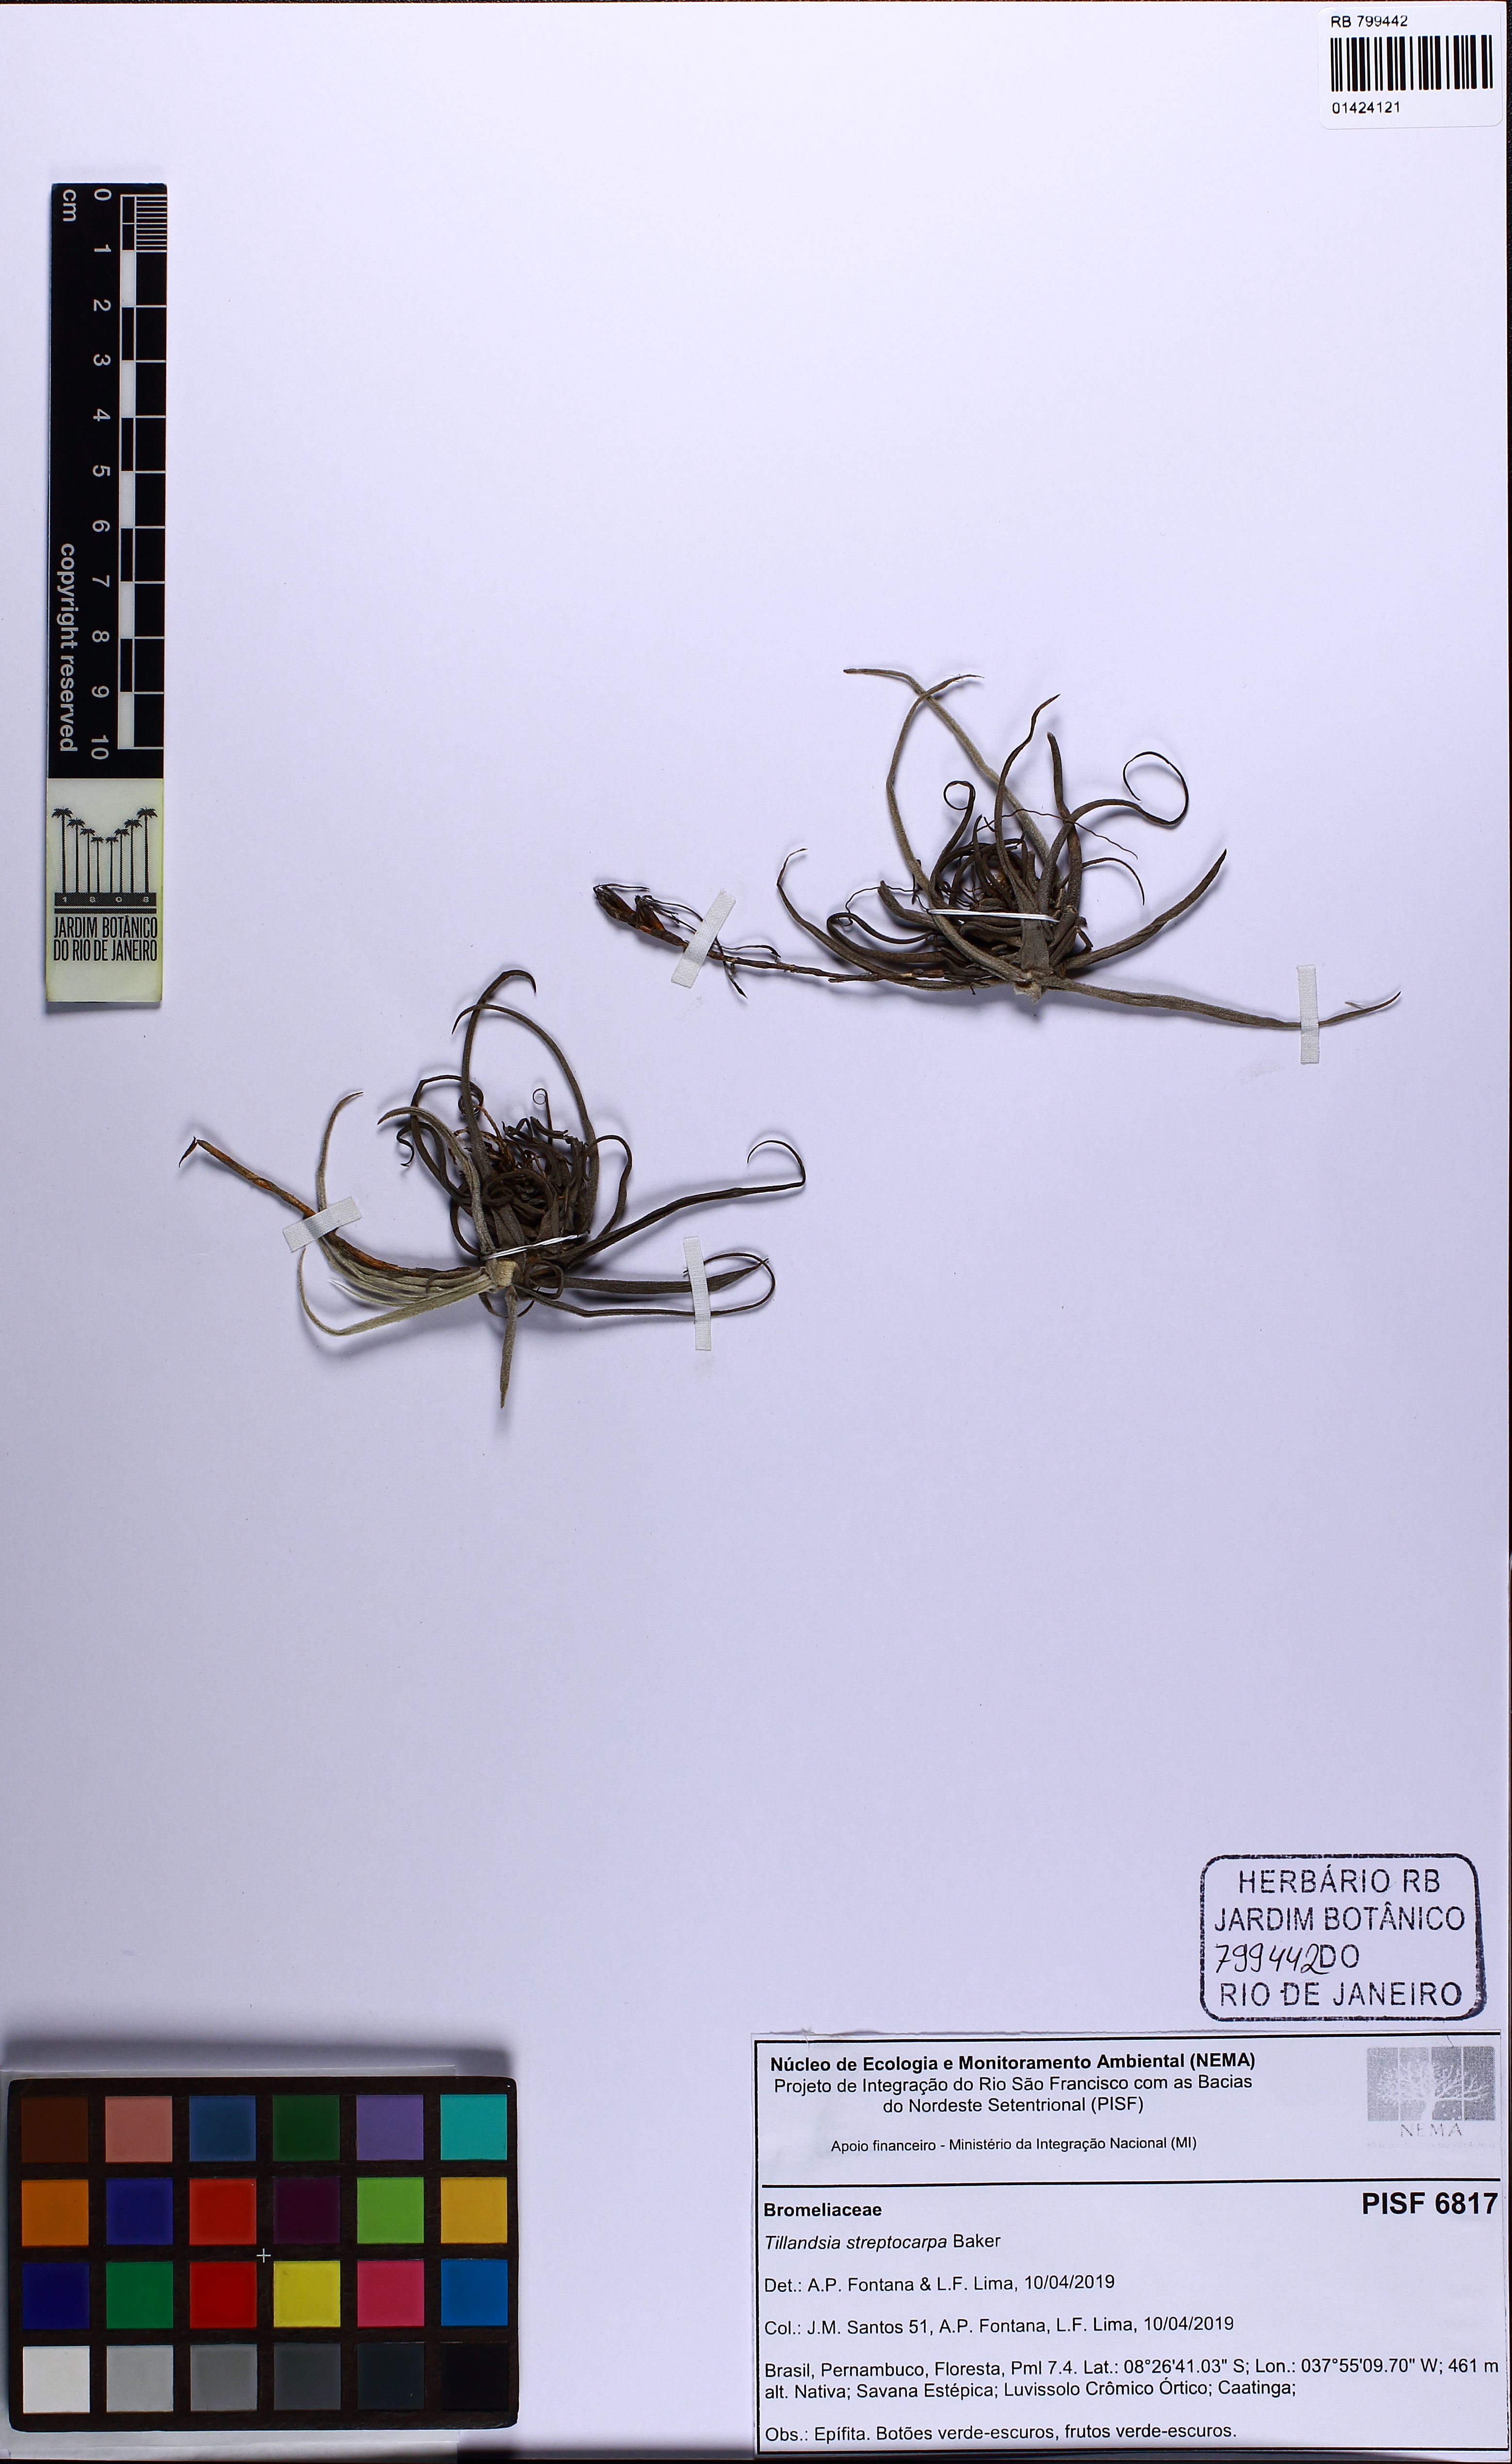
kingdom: Plantae
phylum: Tracheophyta
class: Liliopsida
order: Poales
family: Bromeliaceae
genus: Tillandsia
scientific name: Tillandsia streptocarpa
